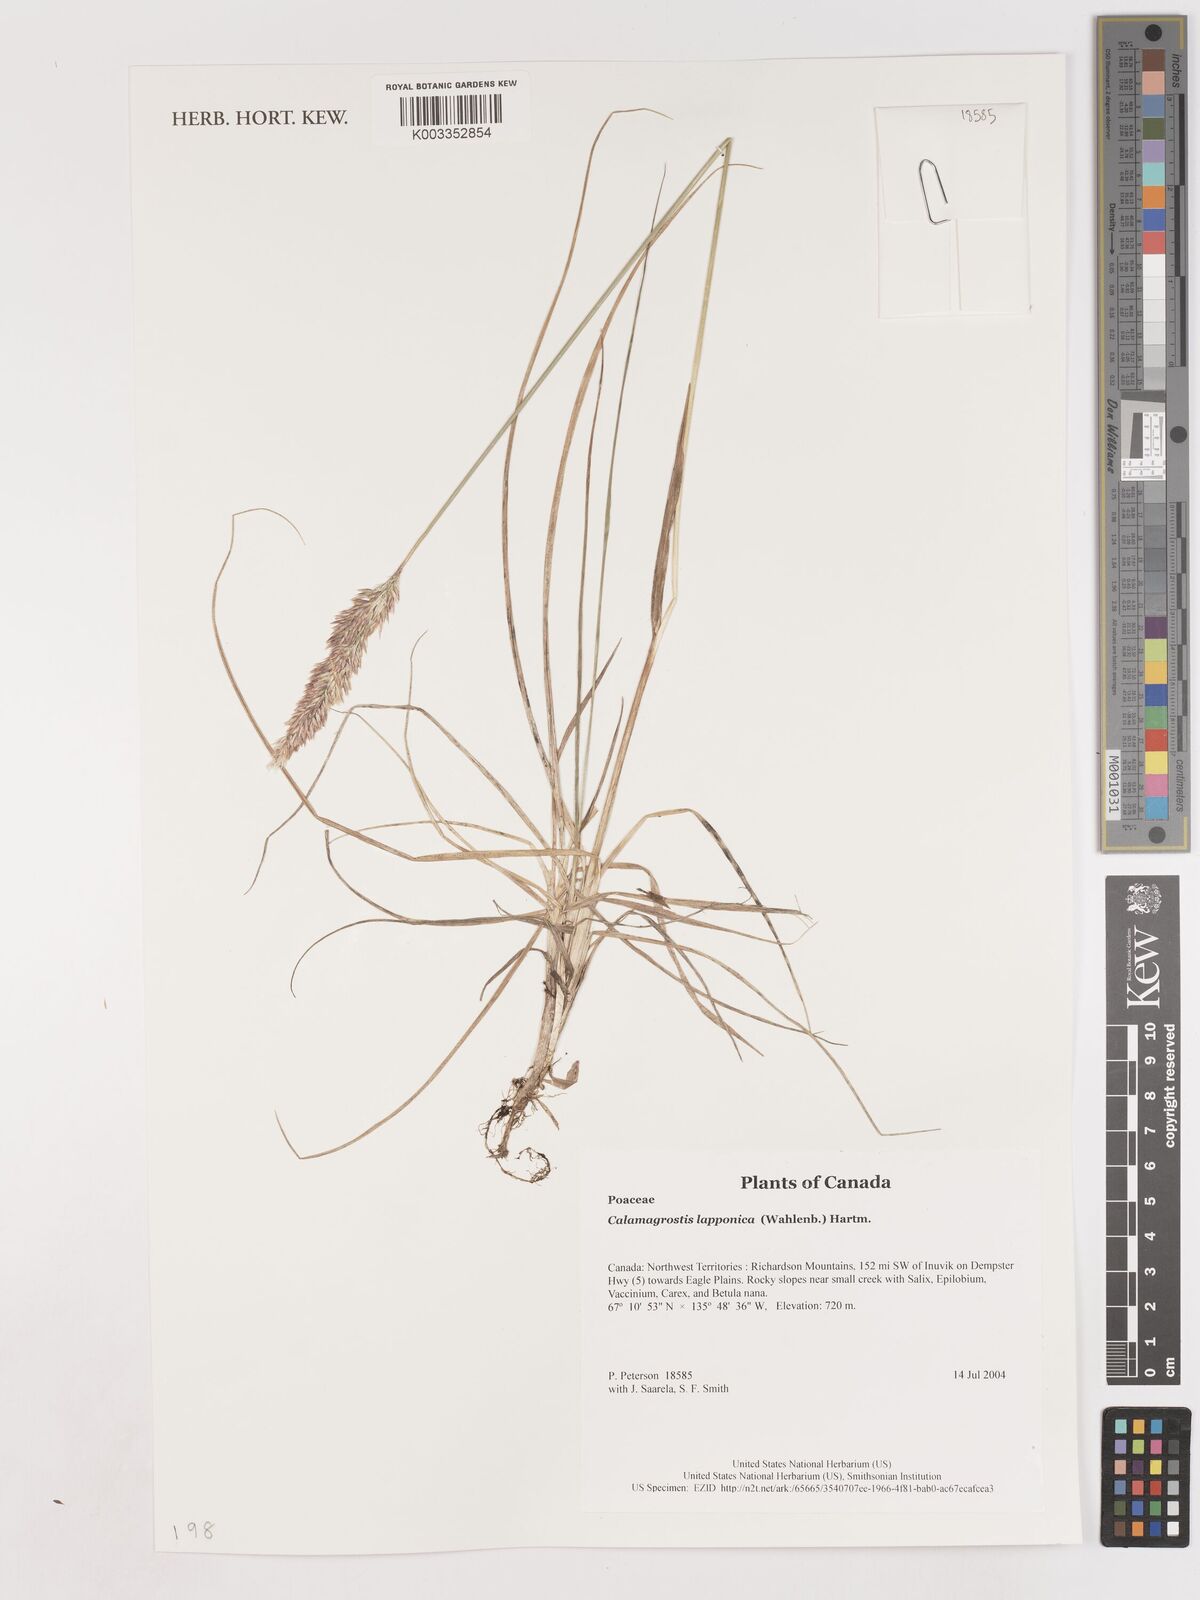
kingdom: Plantae
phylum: Tracheophyta
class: Liliopsida
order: Poales
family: Poaceae
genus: Calamagrostis
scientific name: Calamagrostis lapponica
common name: Lapland reedgrass
